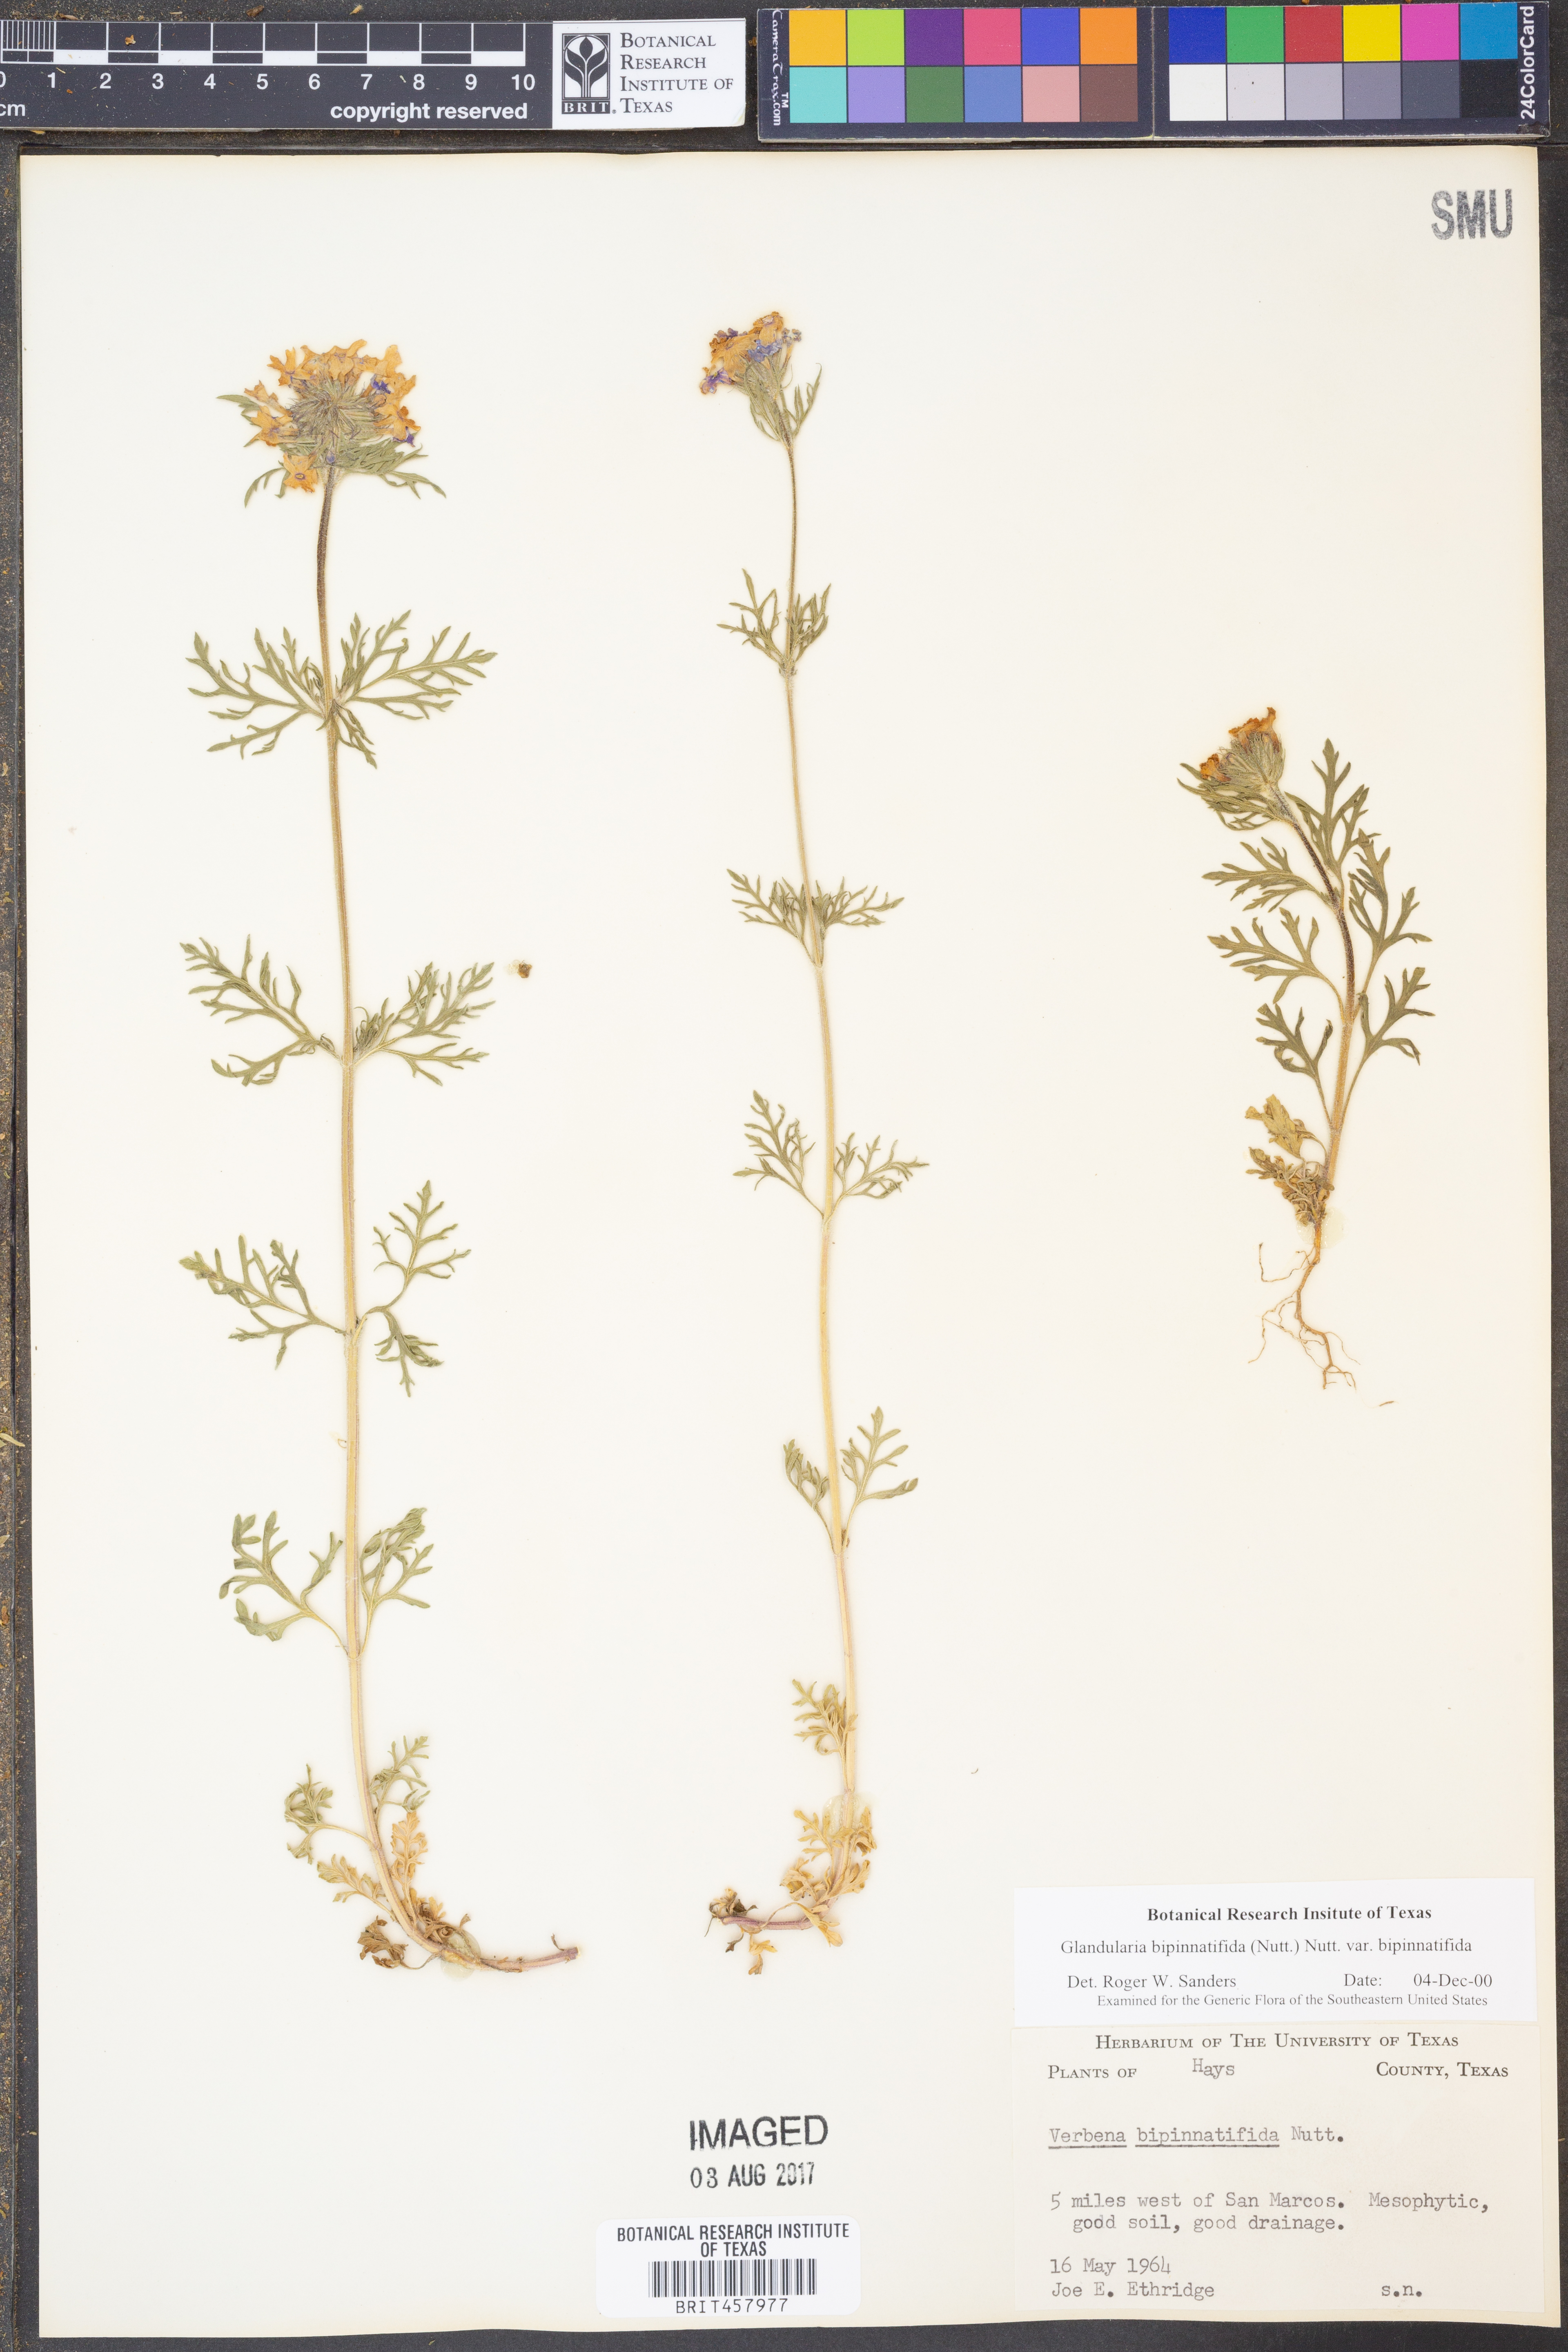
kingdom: Plantae
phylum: Tracheophyta
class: Magnoliopsida
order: Lamiales
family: Verbenaceae
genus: Verbena
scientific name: Verbena bipinnatifida
